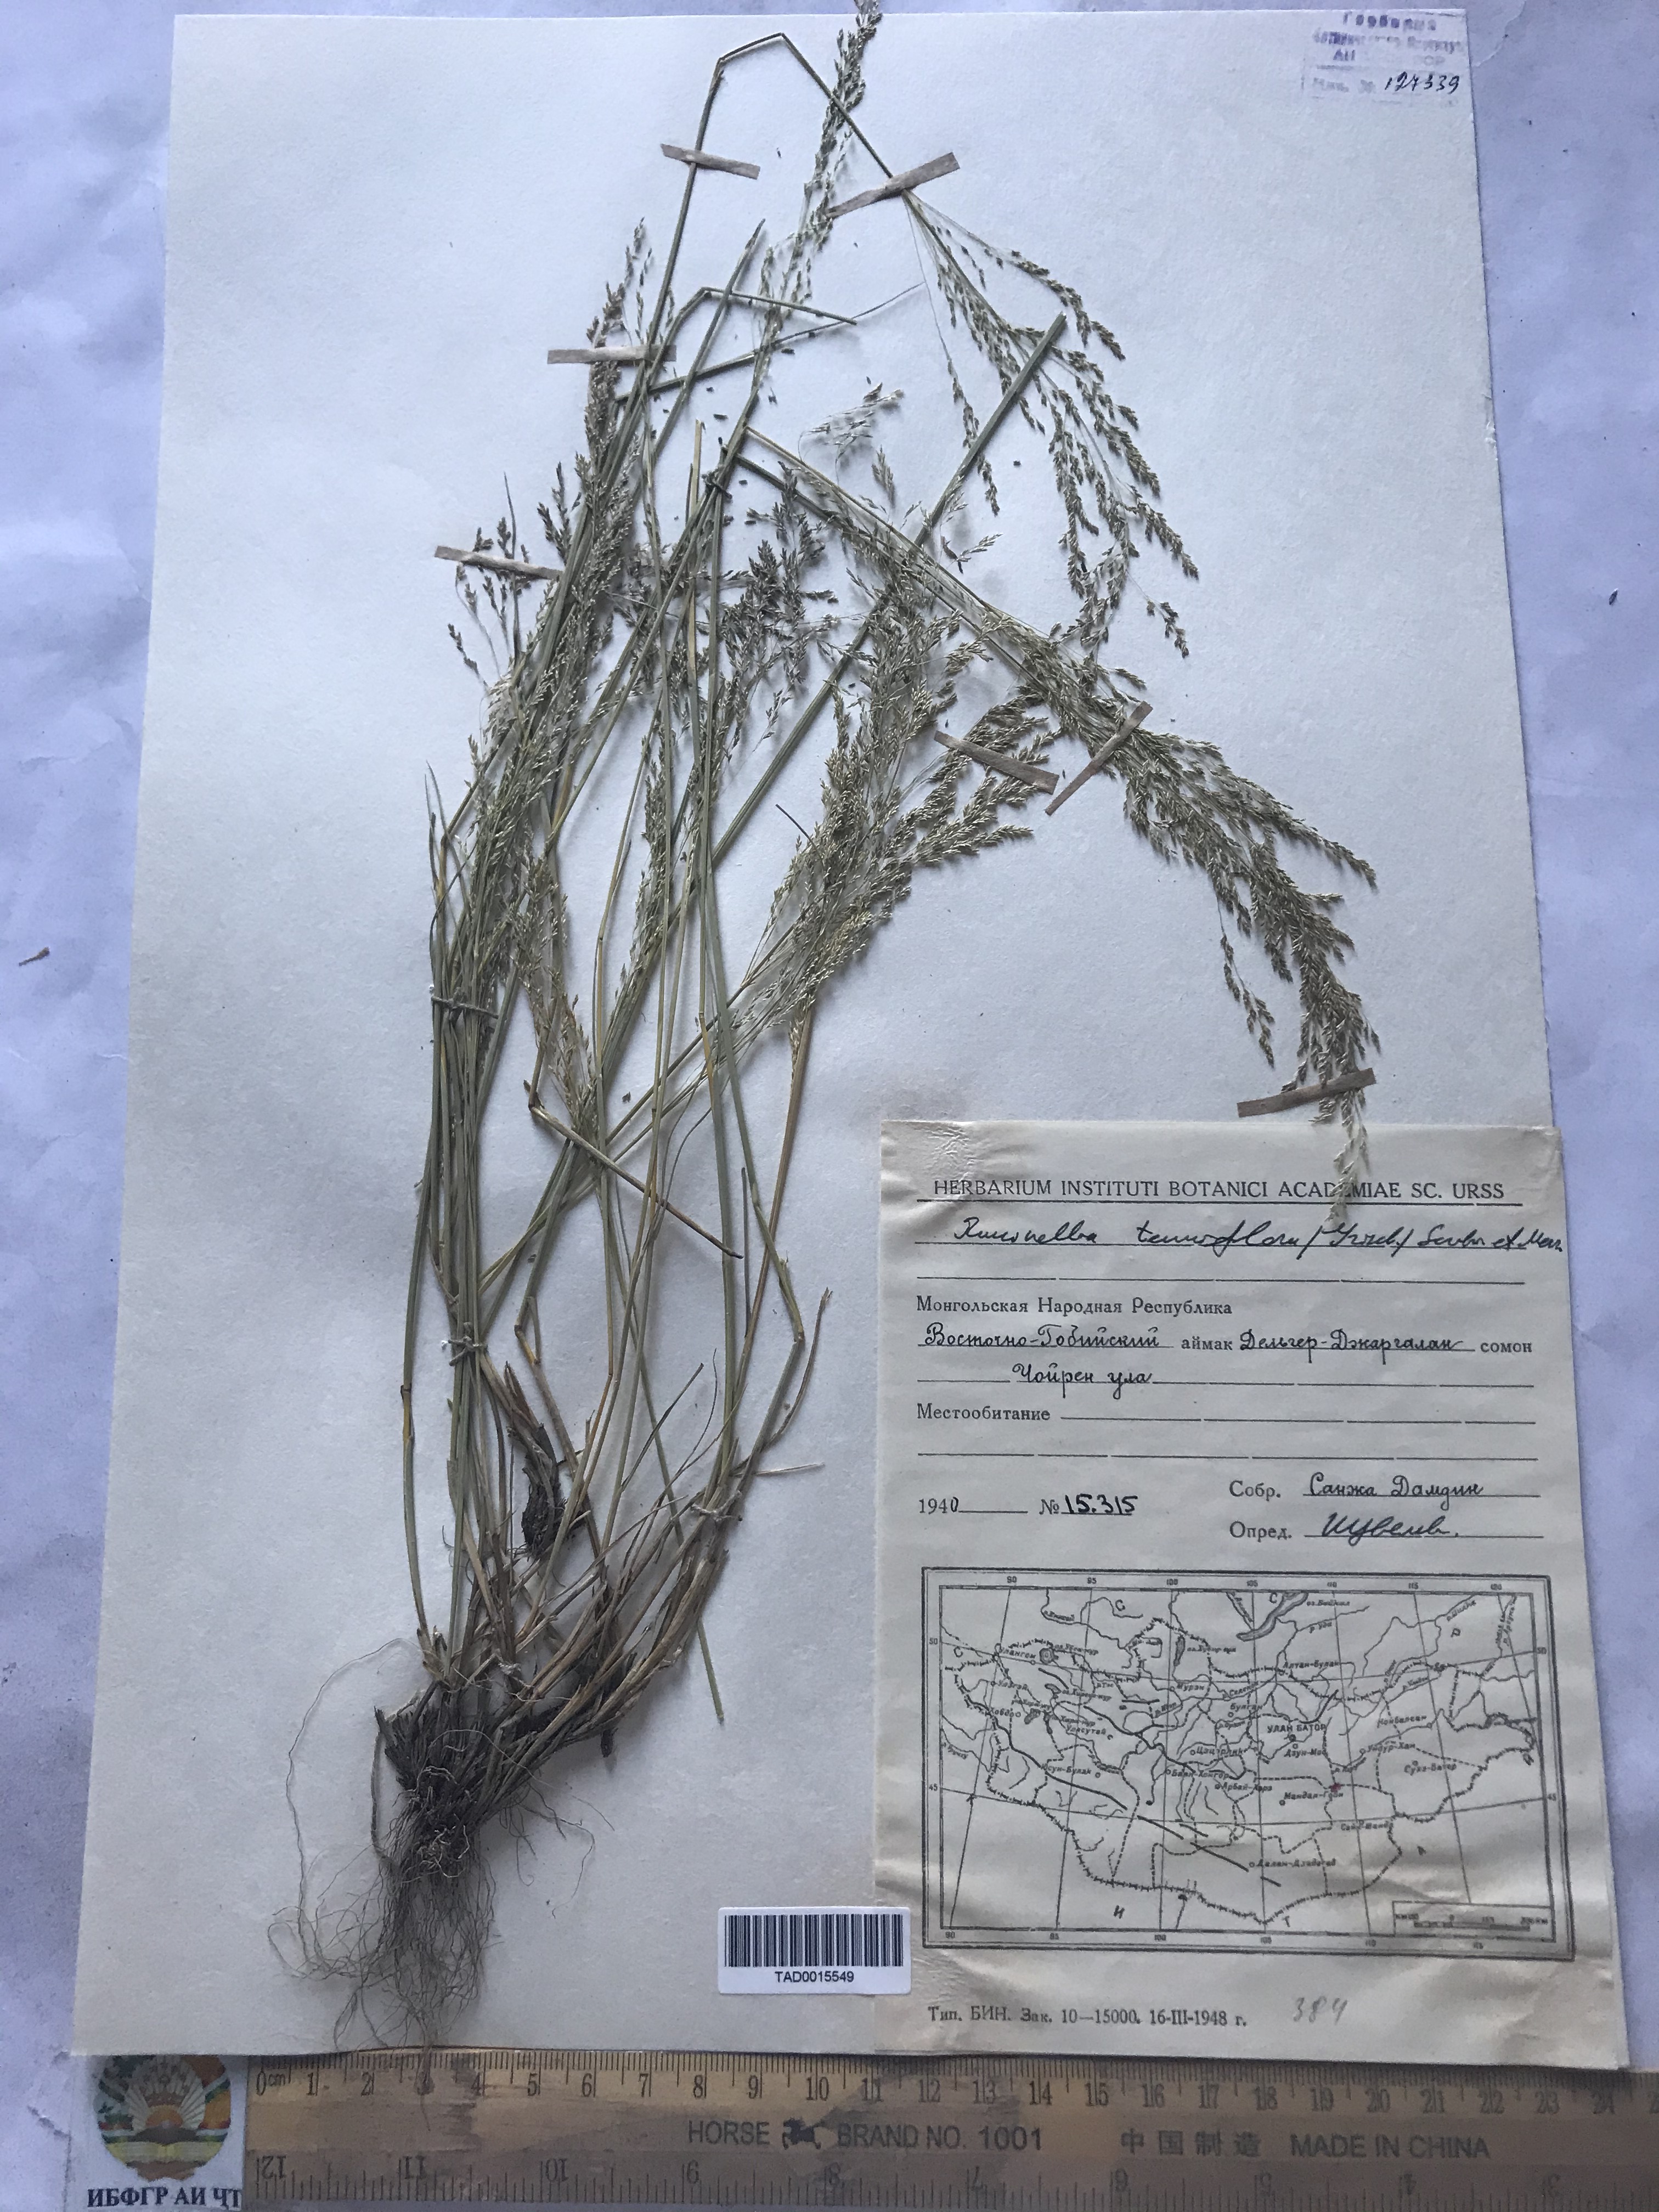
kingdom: Plantae
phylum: Tracheophyta
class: Liliopsida
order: Poales
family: Poaceae
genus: Puccinellia
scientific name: Puccinellia tenuiflora
